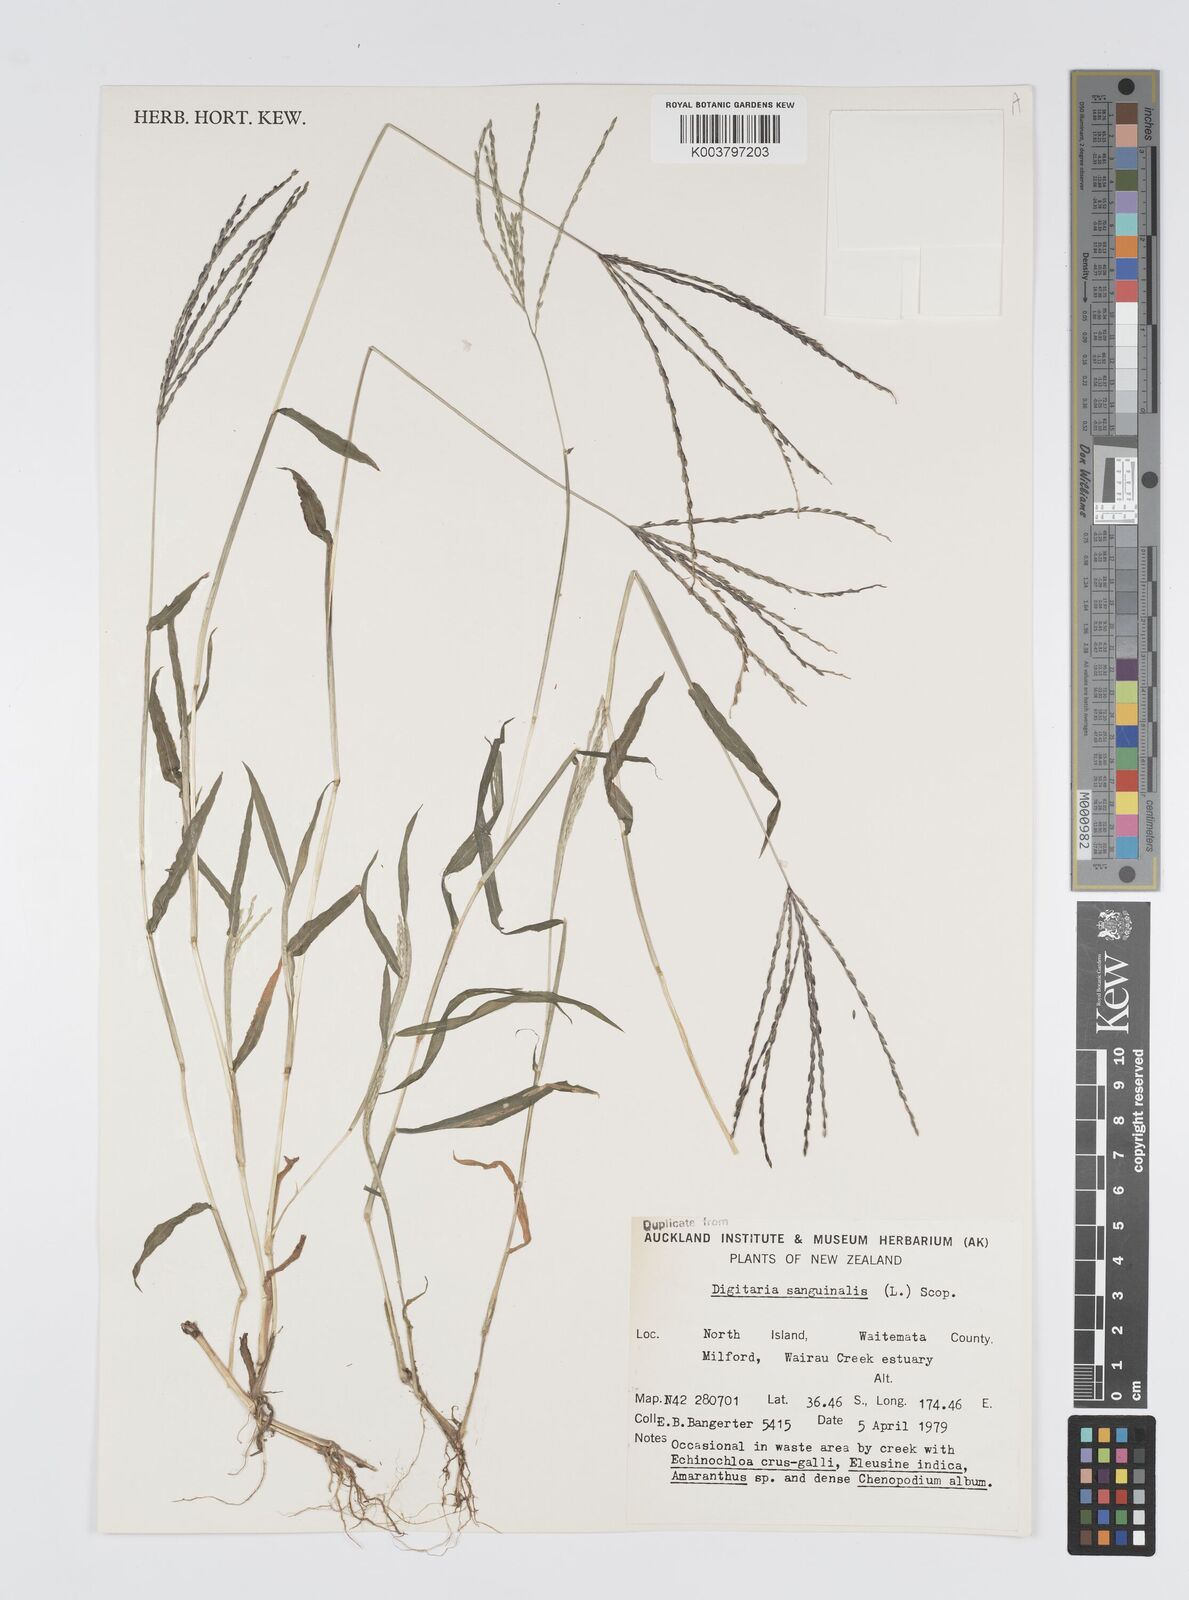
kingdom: Plantae
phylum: Tracheophyta
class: Liliopsida
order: Poales
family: Poaceae
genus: Digitaria
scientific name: Digitaria sanguinalis
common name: Hairy crabgrass
